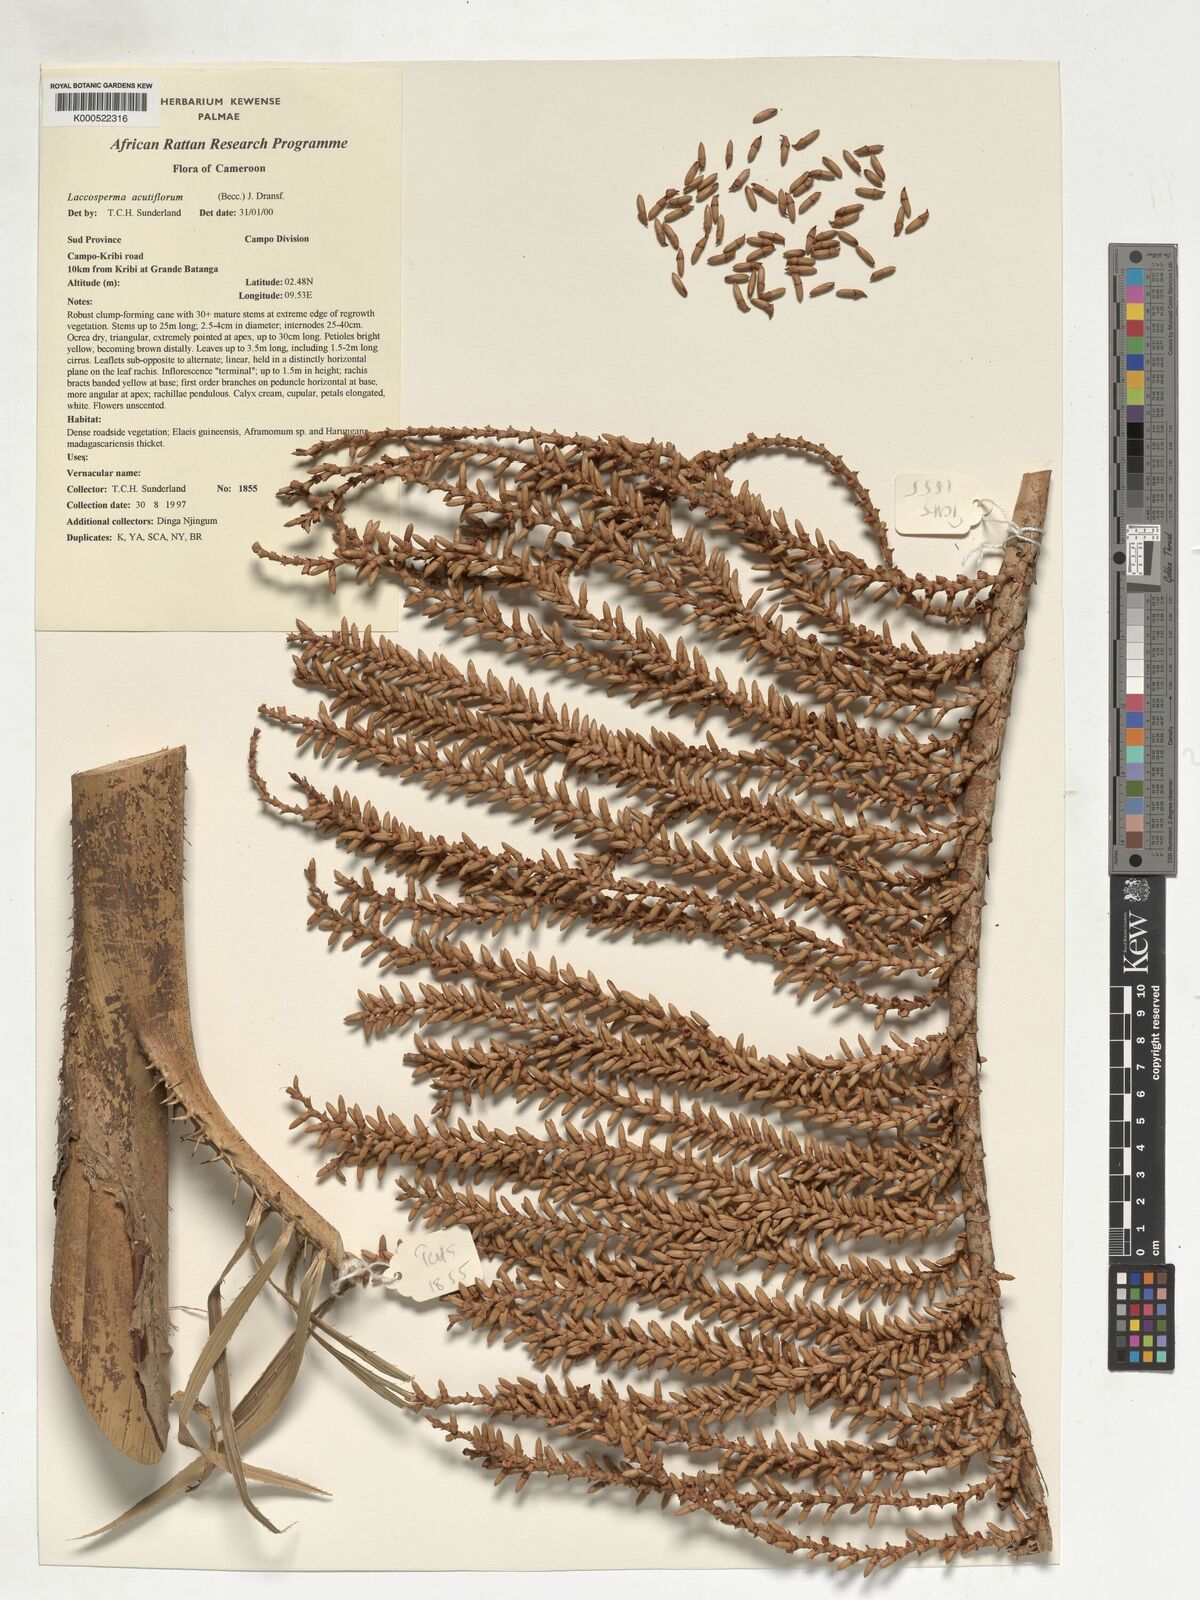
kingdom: Plantae
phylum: Tracheophyta
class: Liliopsida
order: Arecales
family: Arecaceae
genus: Laccosperma
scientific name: Laccosperma acutiflorum
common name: Rattan
